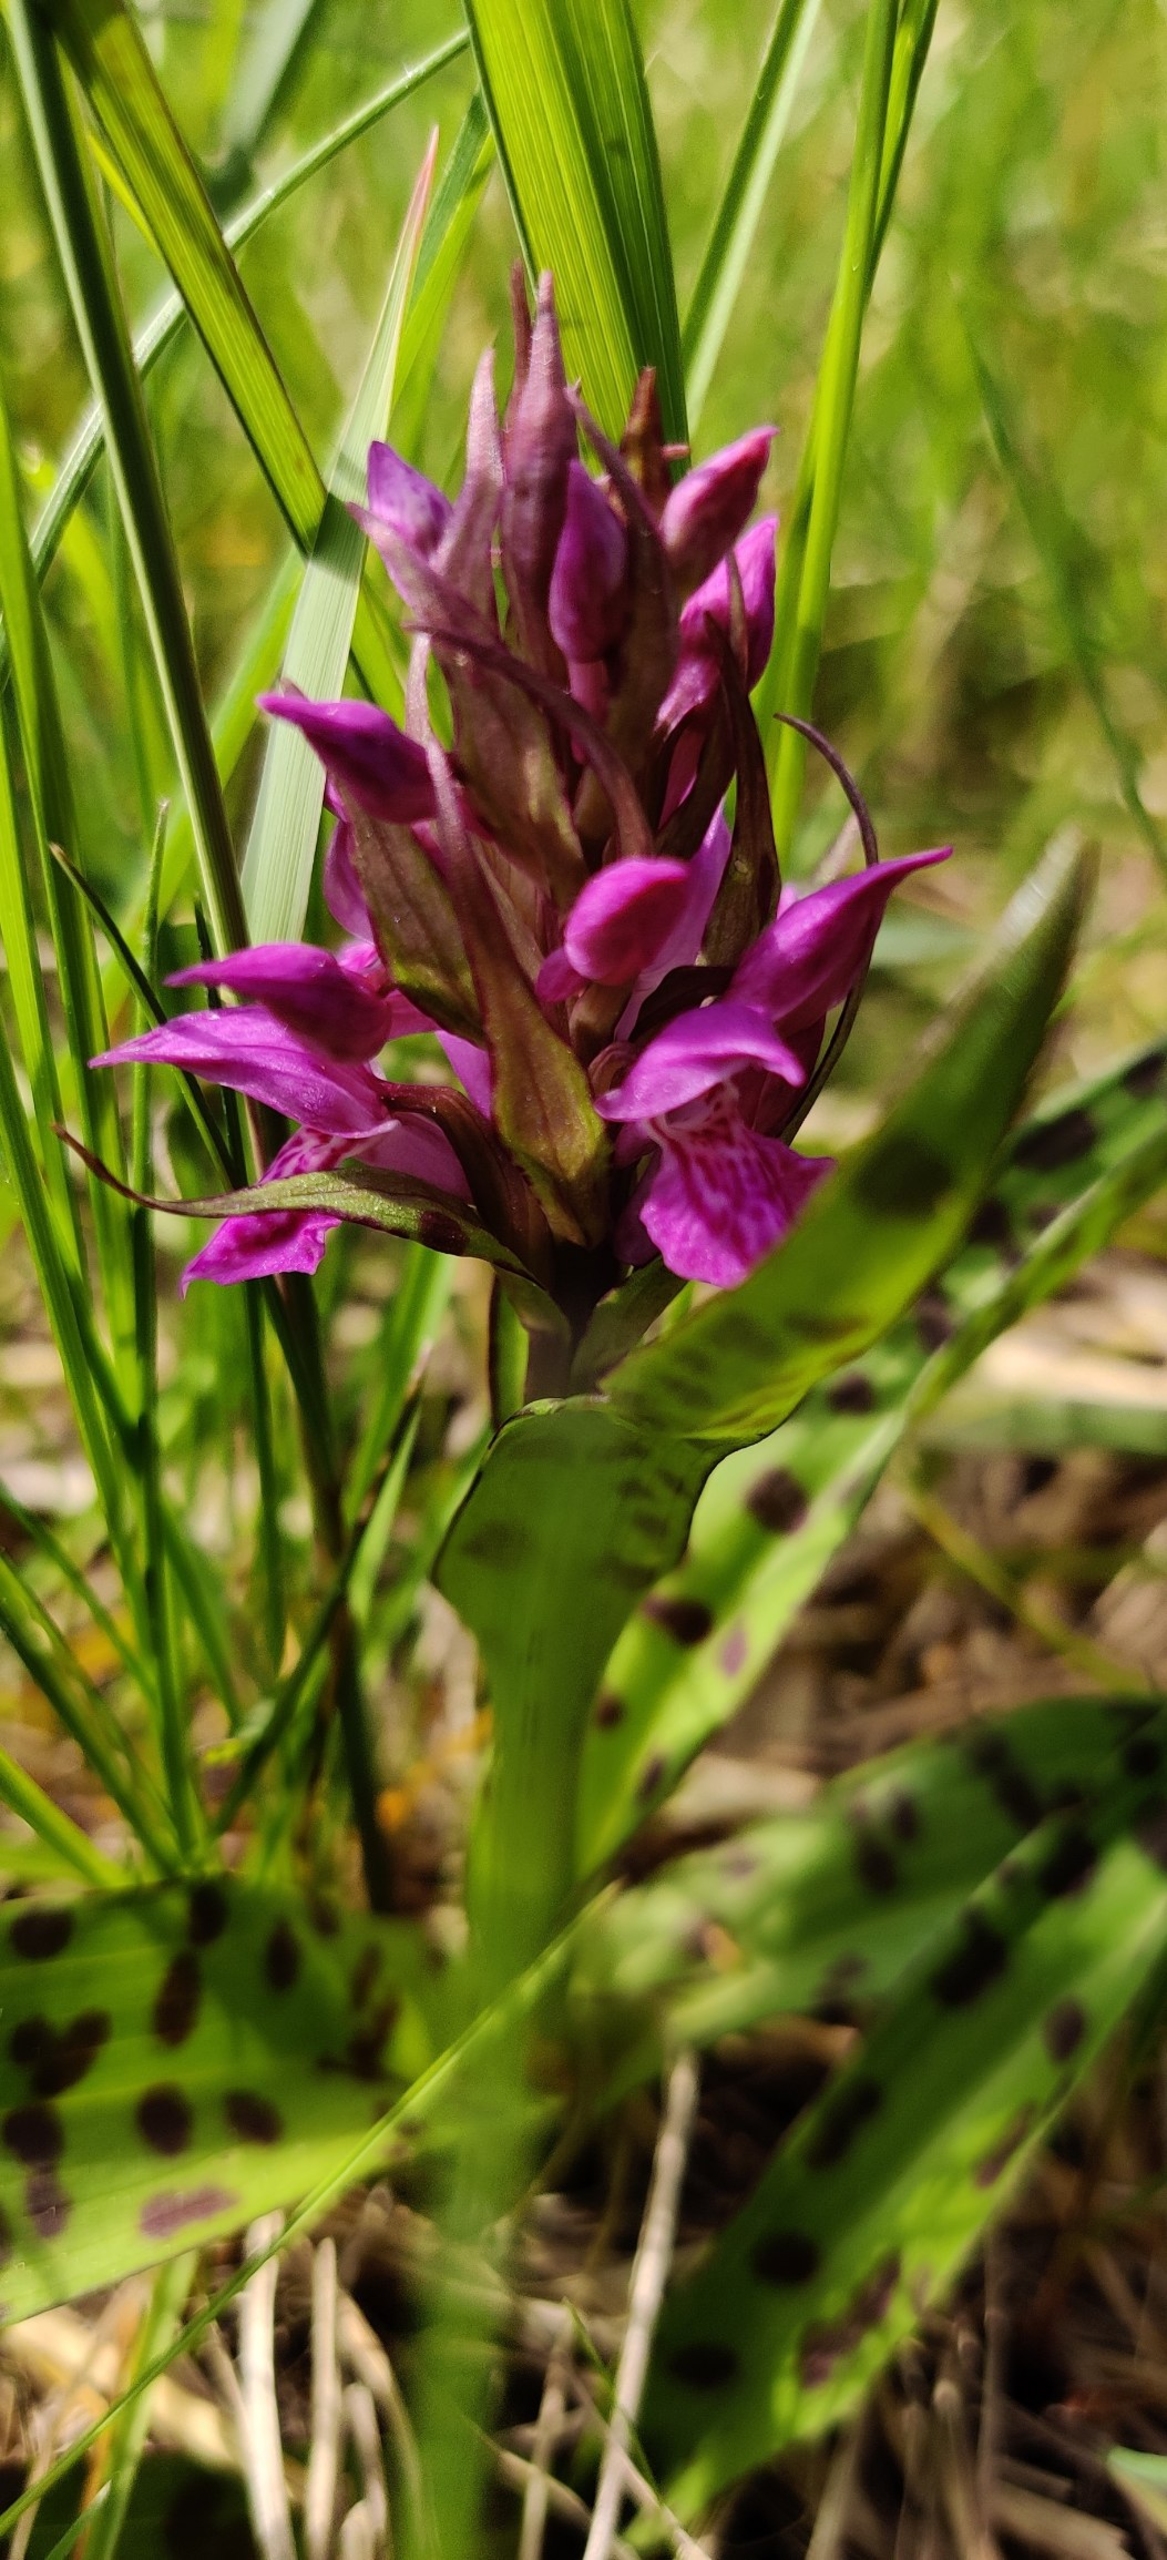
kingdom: Plantae
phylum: Tracheophyta
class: Liliopsida
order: Asparagales
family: Orchidaceae
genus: Dactylorhiza
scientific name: Dactylorhiza majalis
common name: Maj-gøgeurt
